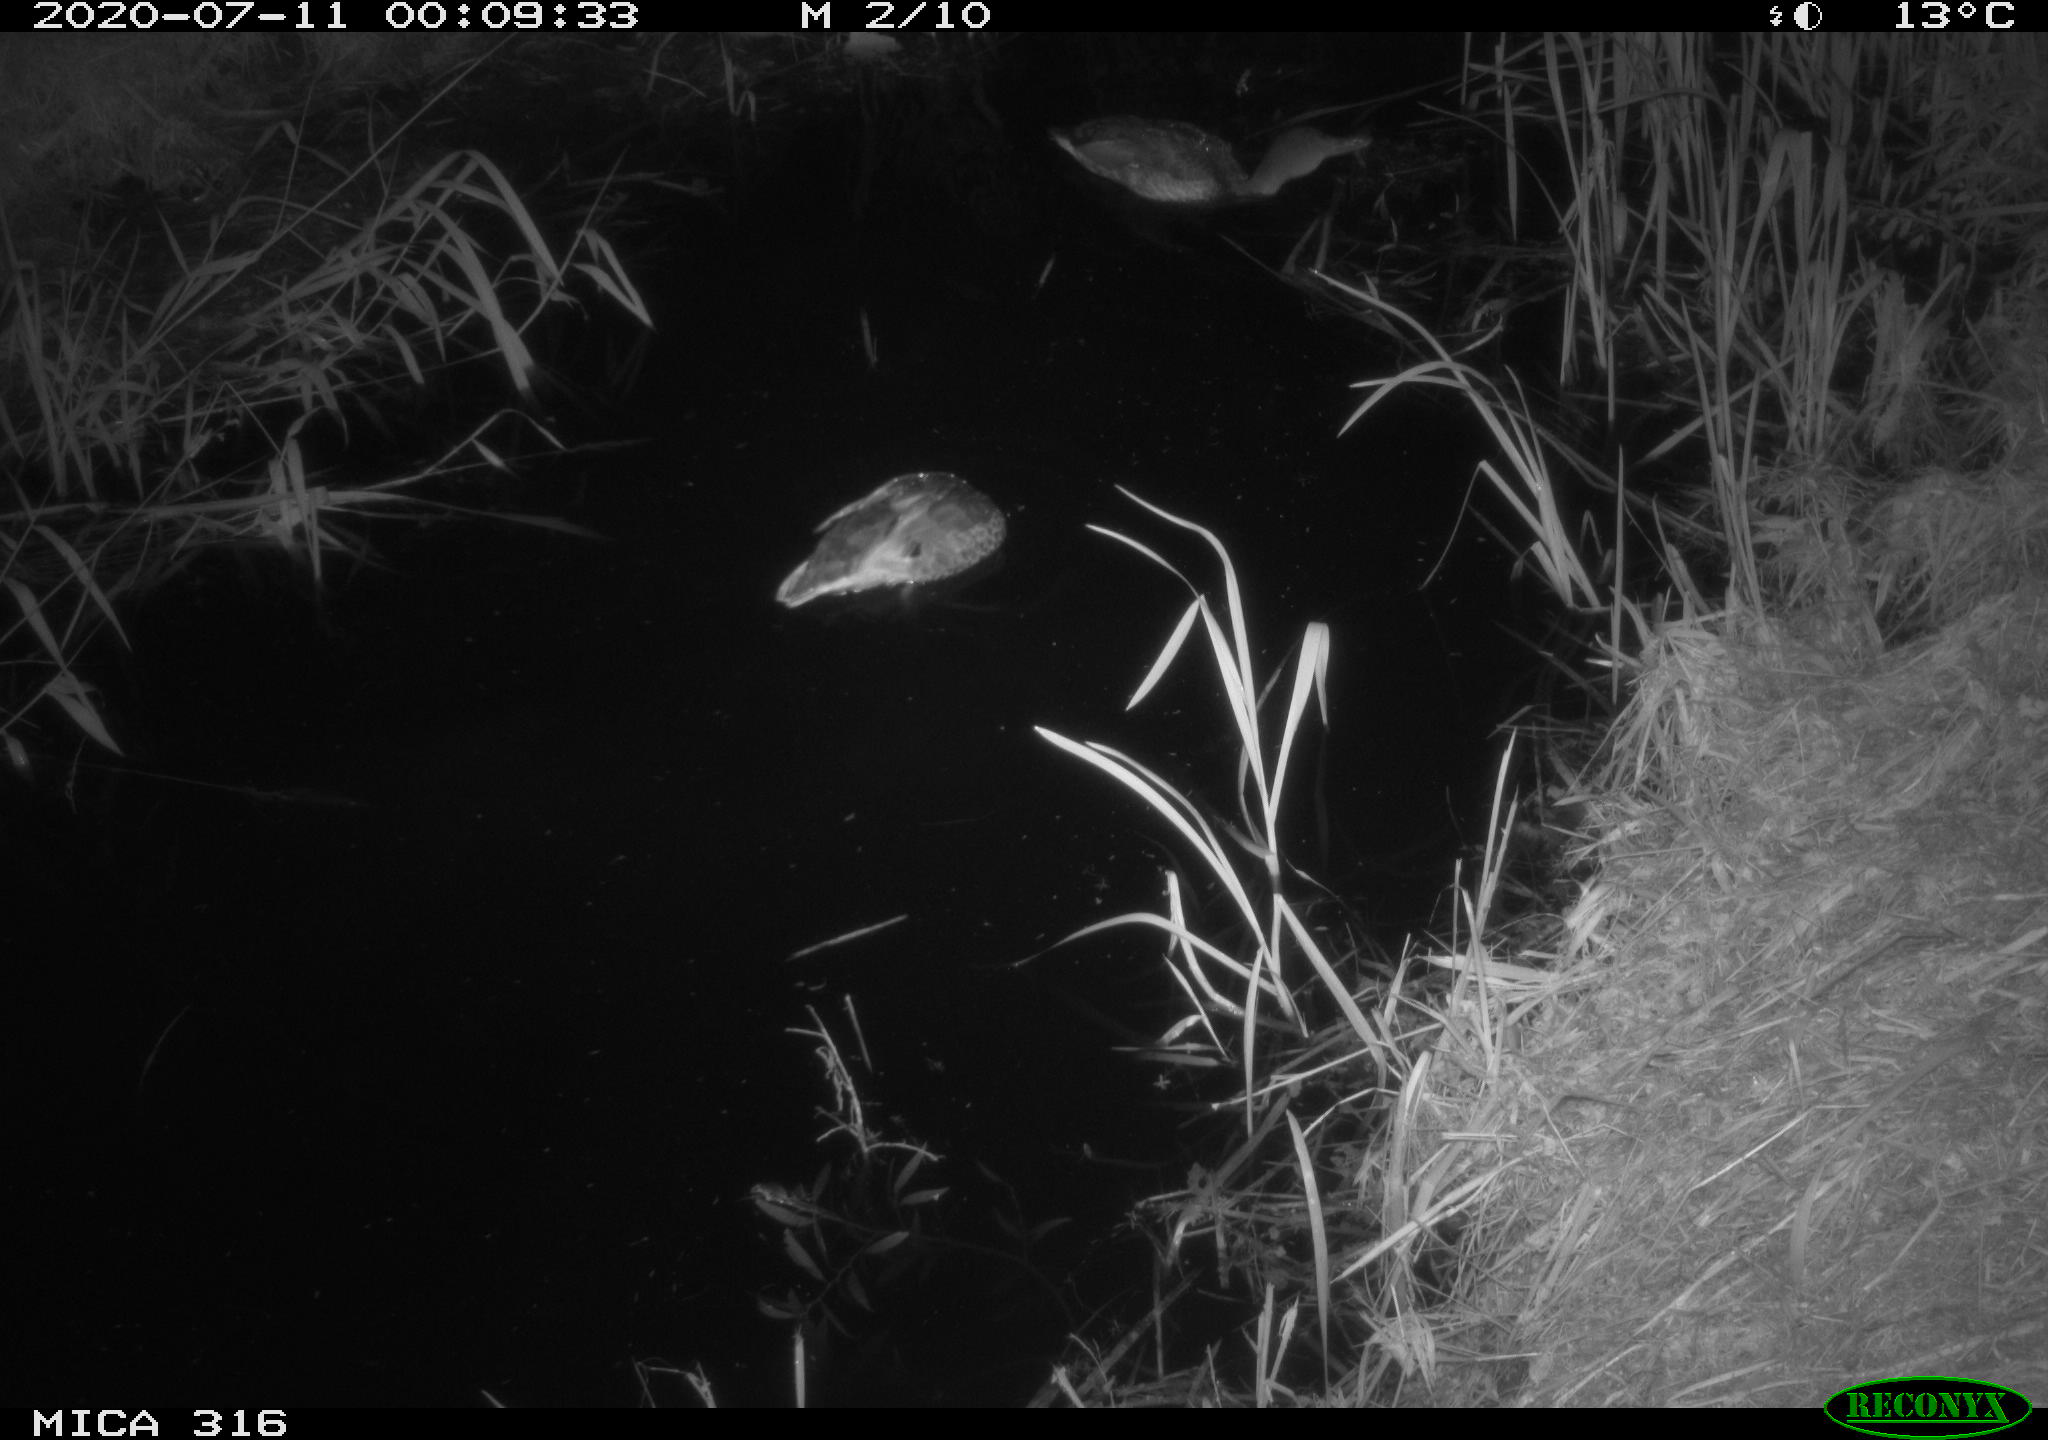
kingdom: Animalia
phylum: Chordata
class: Aves
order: Anseriformes
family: Anatidae
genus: Anas
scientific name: Anas platyrhynchos
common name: Mallard
